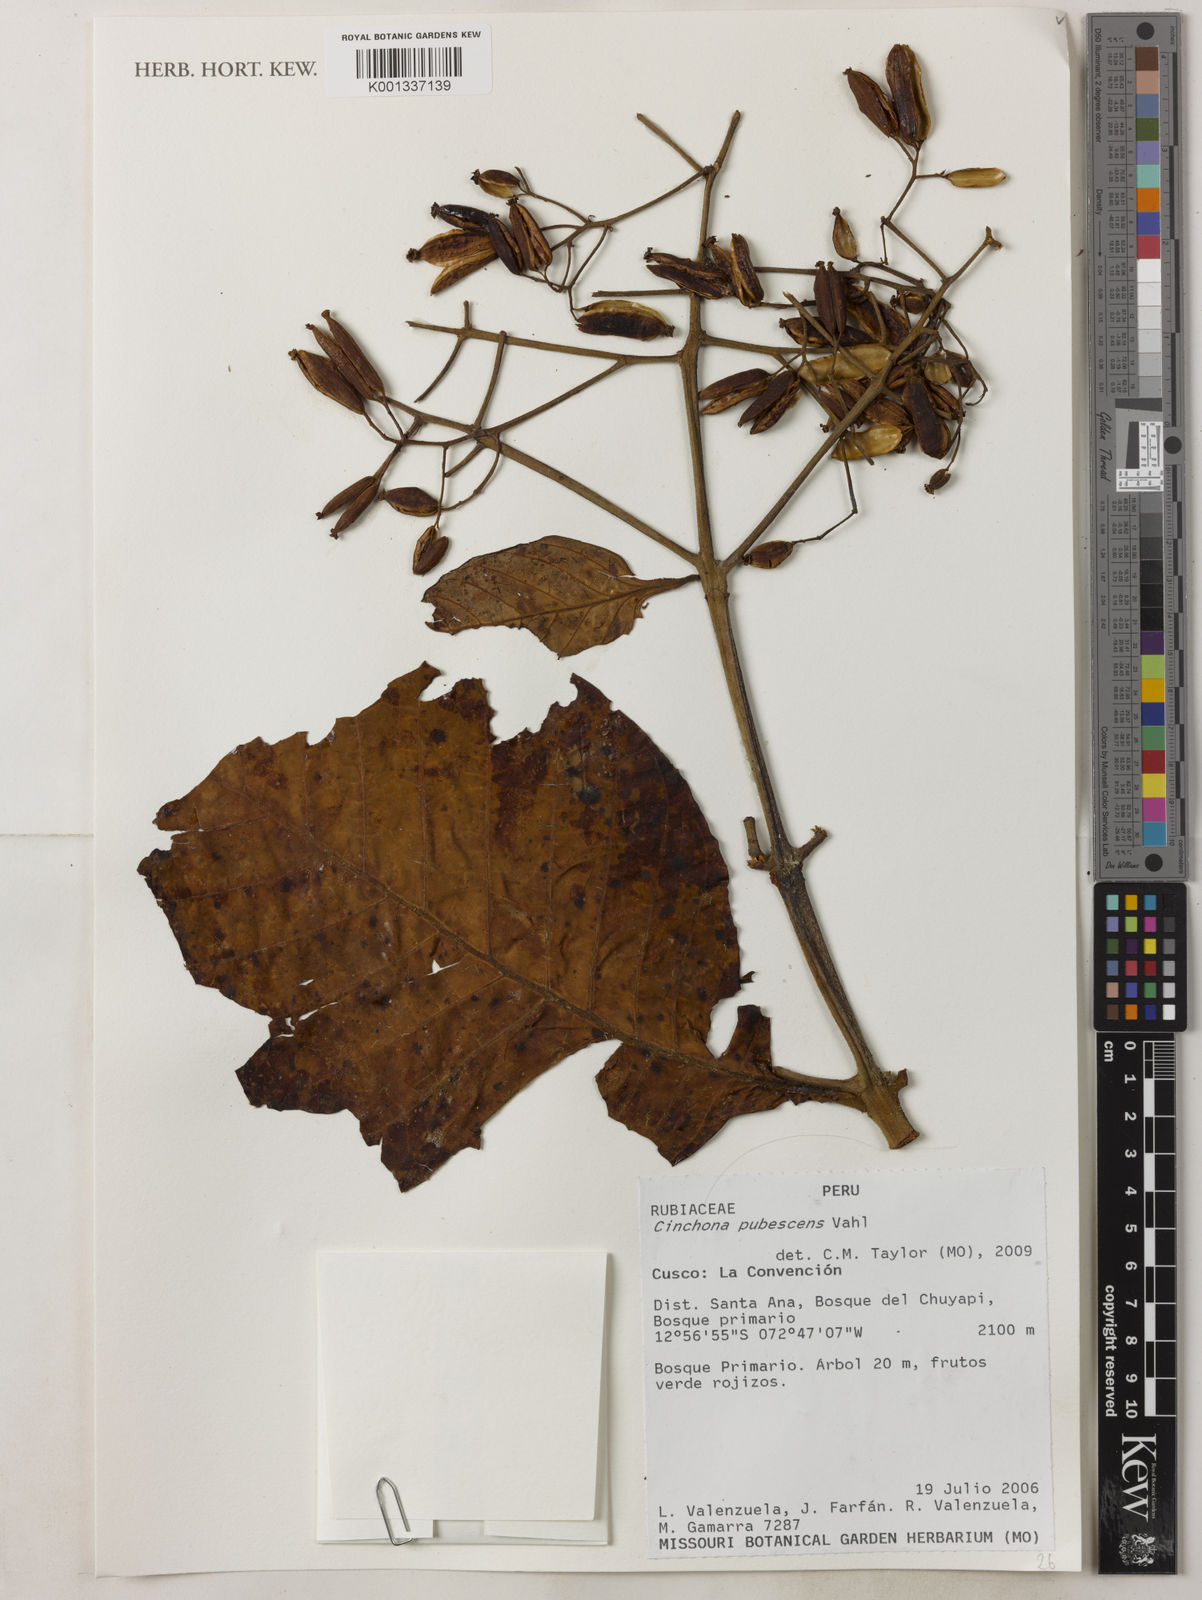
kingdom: Plantae
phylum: Tracheophyta
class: Magnoliopsida
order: Gentianales
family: Rubiaceae
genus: Cinchona
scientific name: Cinchona pubescens
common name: Quinine
